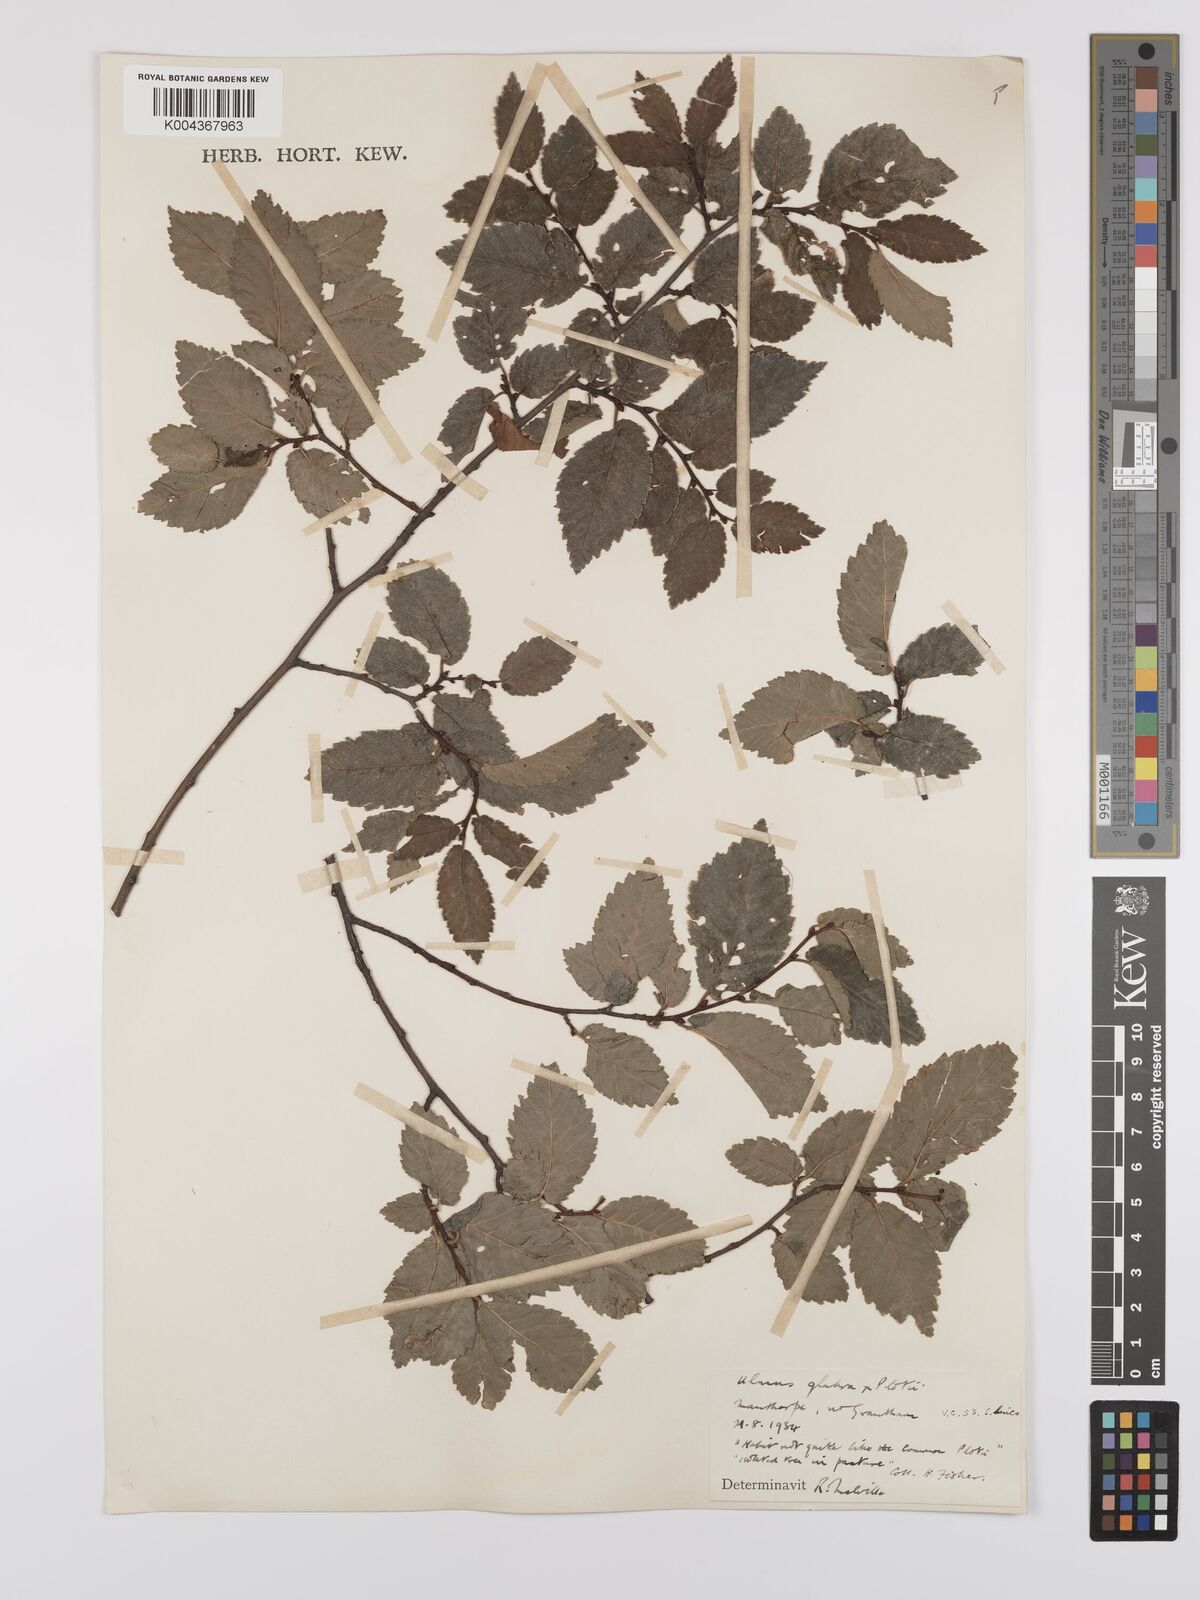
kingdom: Plantae
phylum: Tracheophyta
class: Magnoliopsida
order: Rosales
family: Ulmaceae
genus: Ulmus
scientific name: Ulmus glabra
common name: Wych elm
